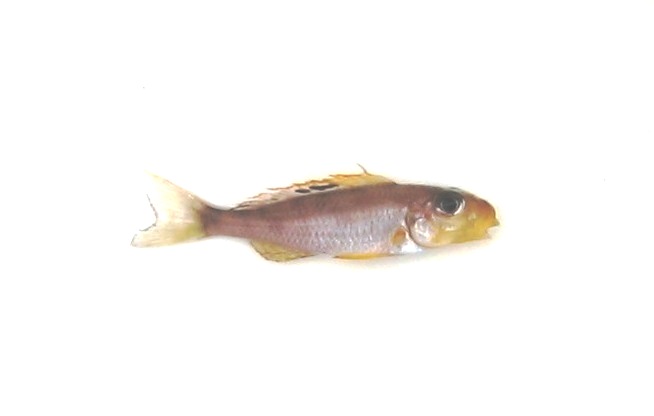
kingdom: Animalia
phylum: Chordata
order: Perciformes
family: Cichlidae
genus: Xenotilapia
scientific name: Xenotilapia papilio
